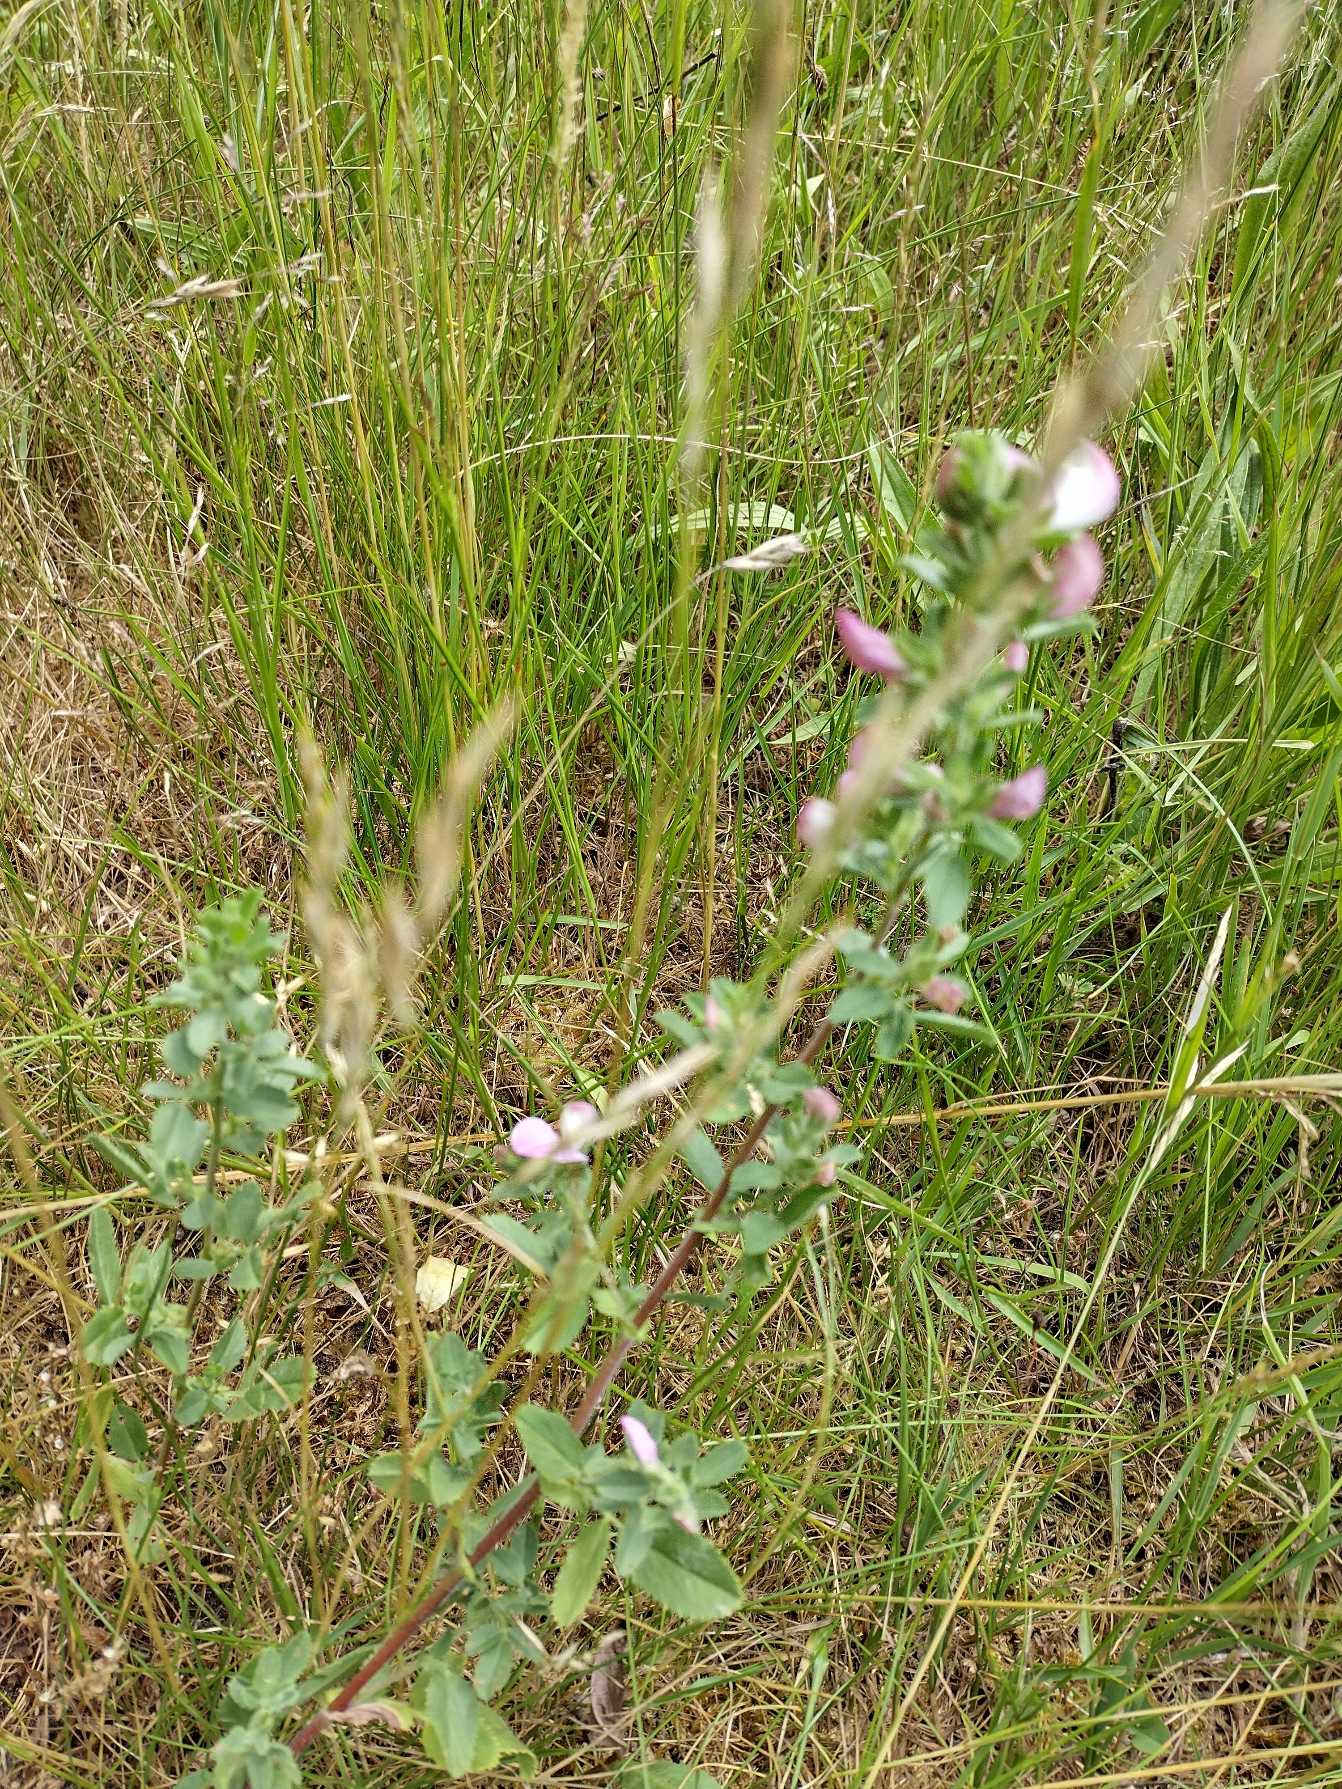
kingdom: Plantae
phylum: Tracheophyta
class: Magnoliopsida
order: Fabales
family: Fabaceae
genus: Ononis
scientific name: Ononis spinosa
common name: Mark-krageklo
